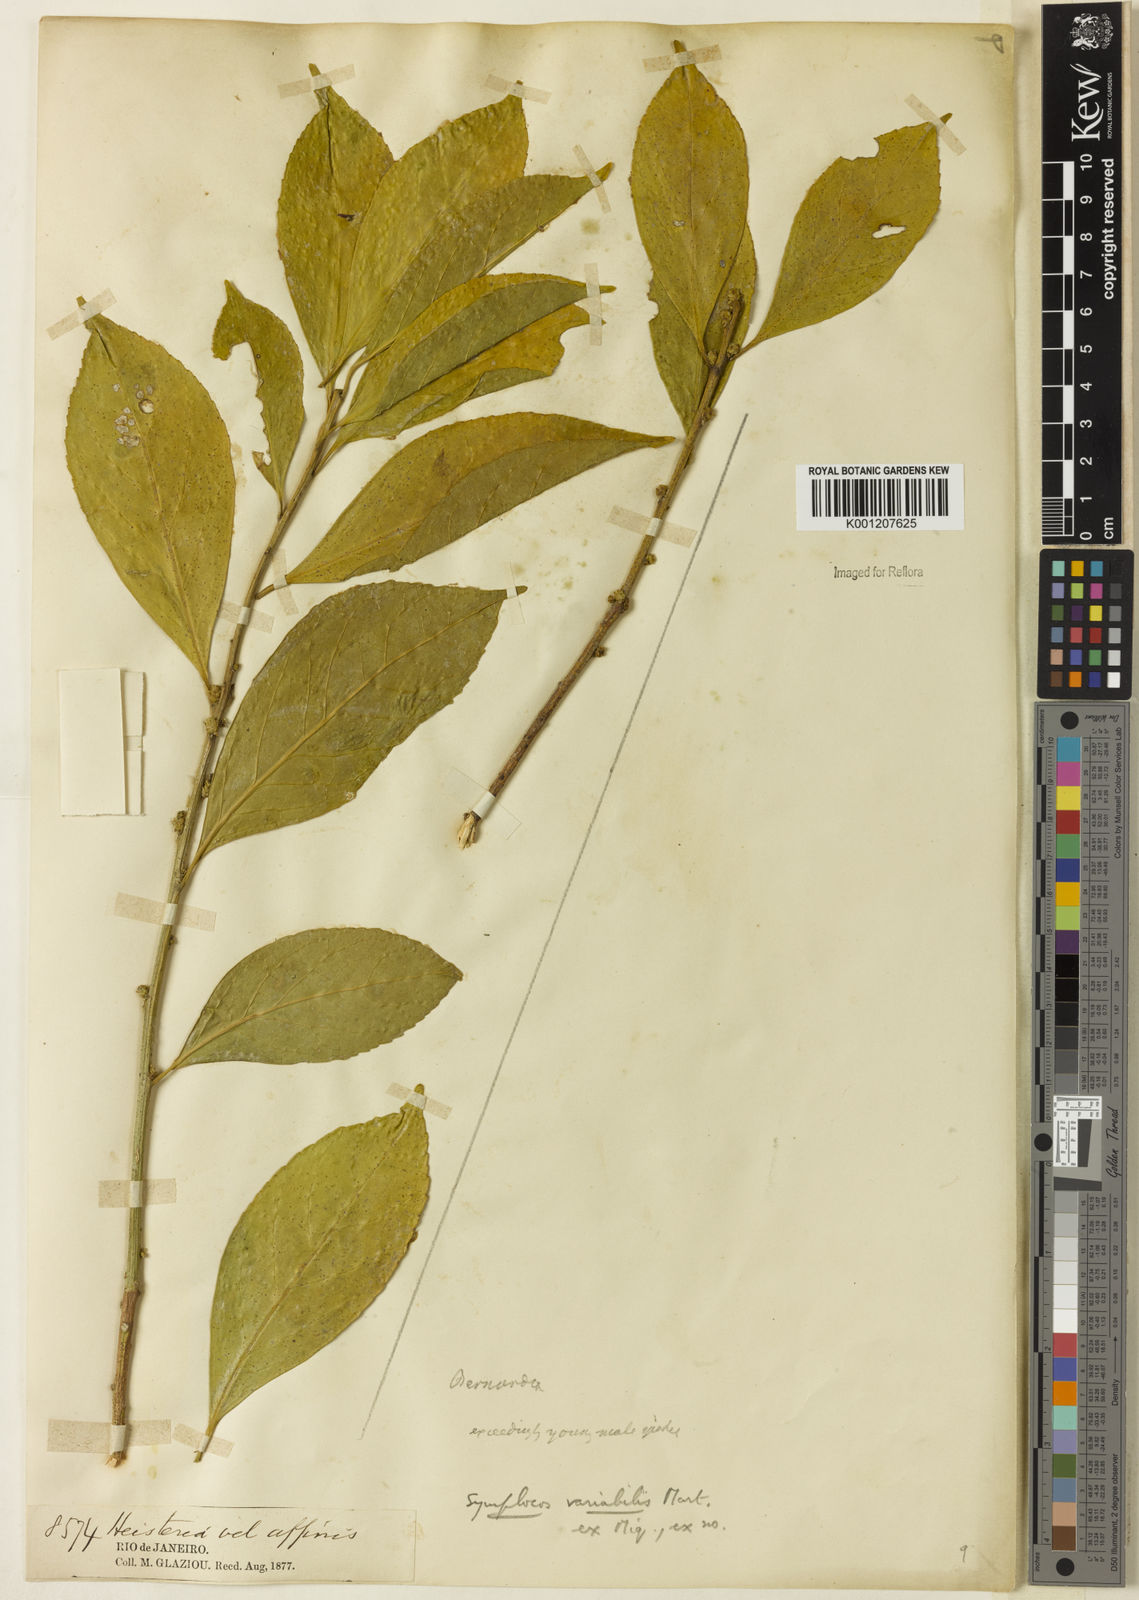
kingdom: Plantae
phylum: Tracheophyta
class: Magnoliopsida
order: Ericales
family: Symplocaceae
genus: Symplocos
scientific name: Symplocos estrellensis
